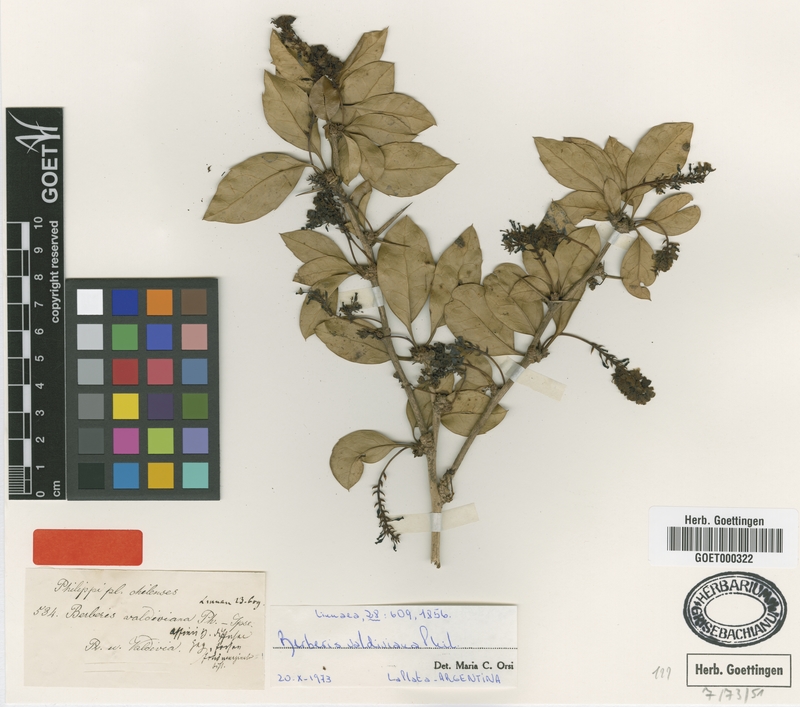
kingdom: Plantae
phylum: Tracheophyta
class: Magnoliopsida
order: Ranunculales
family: Berberidaceae
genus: Berberis
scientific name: Berberis valdiviana
